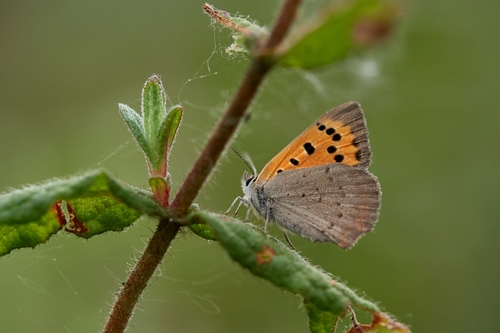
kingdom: Animalia
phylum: Arthropoda
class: Insecta
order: Lepidoptera
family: Lycaenidae
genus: Lycaena
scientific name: Lycaena phlaeas
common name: Small copper
